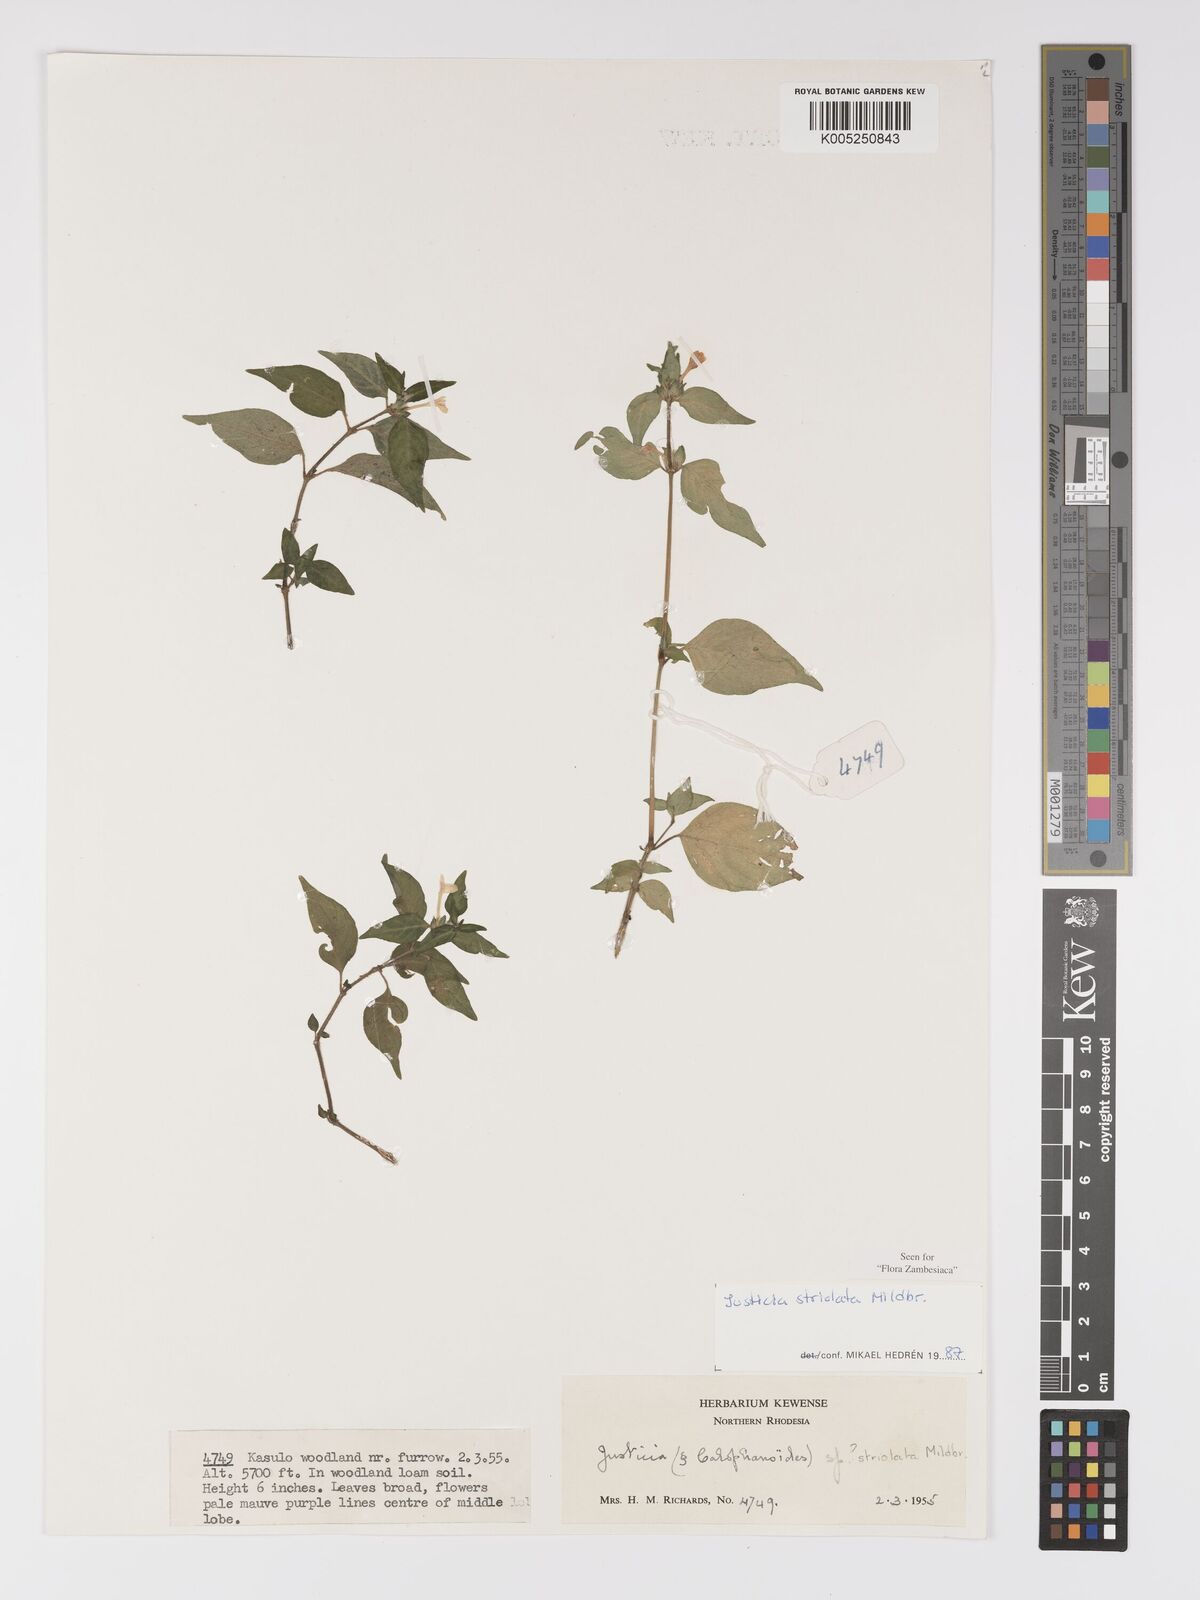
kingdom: Plantae
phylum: Tracheophyta
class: Magnoliopsida
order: Lamiales
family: Acanthaceae
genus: Justicia
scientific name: Justicia striolata
